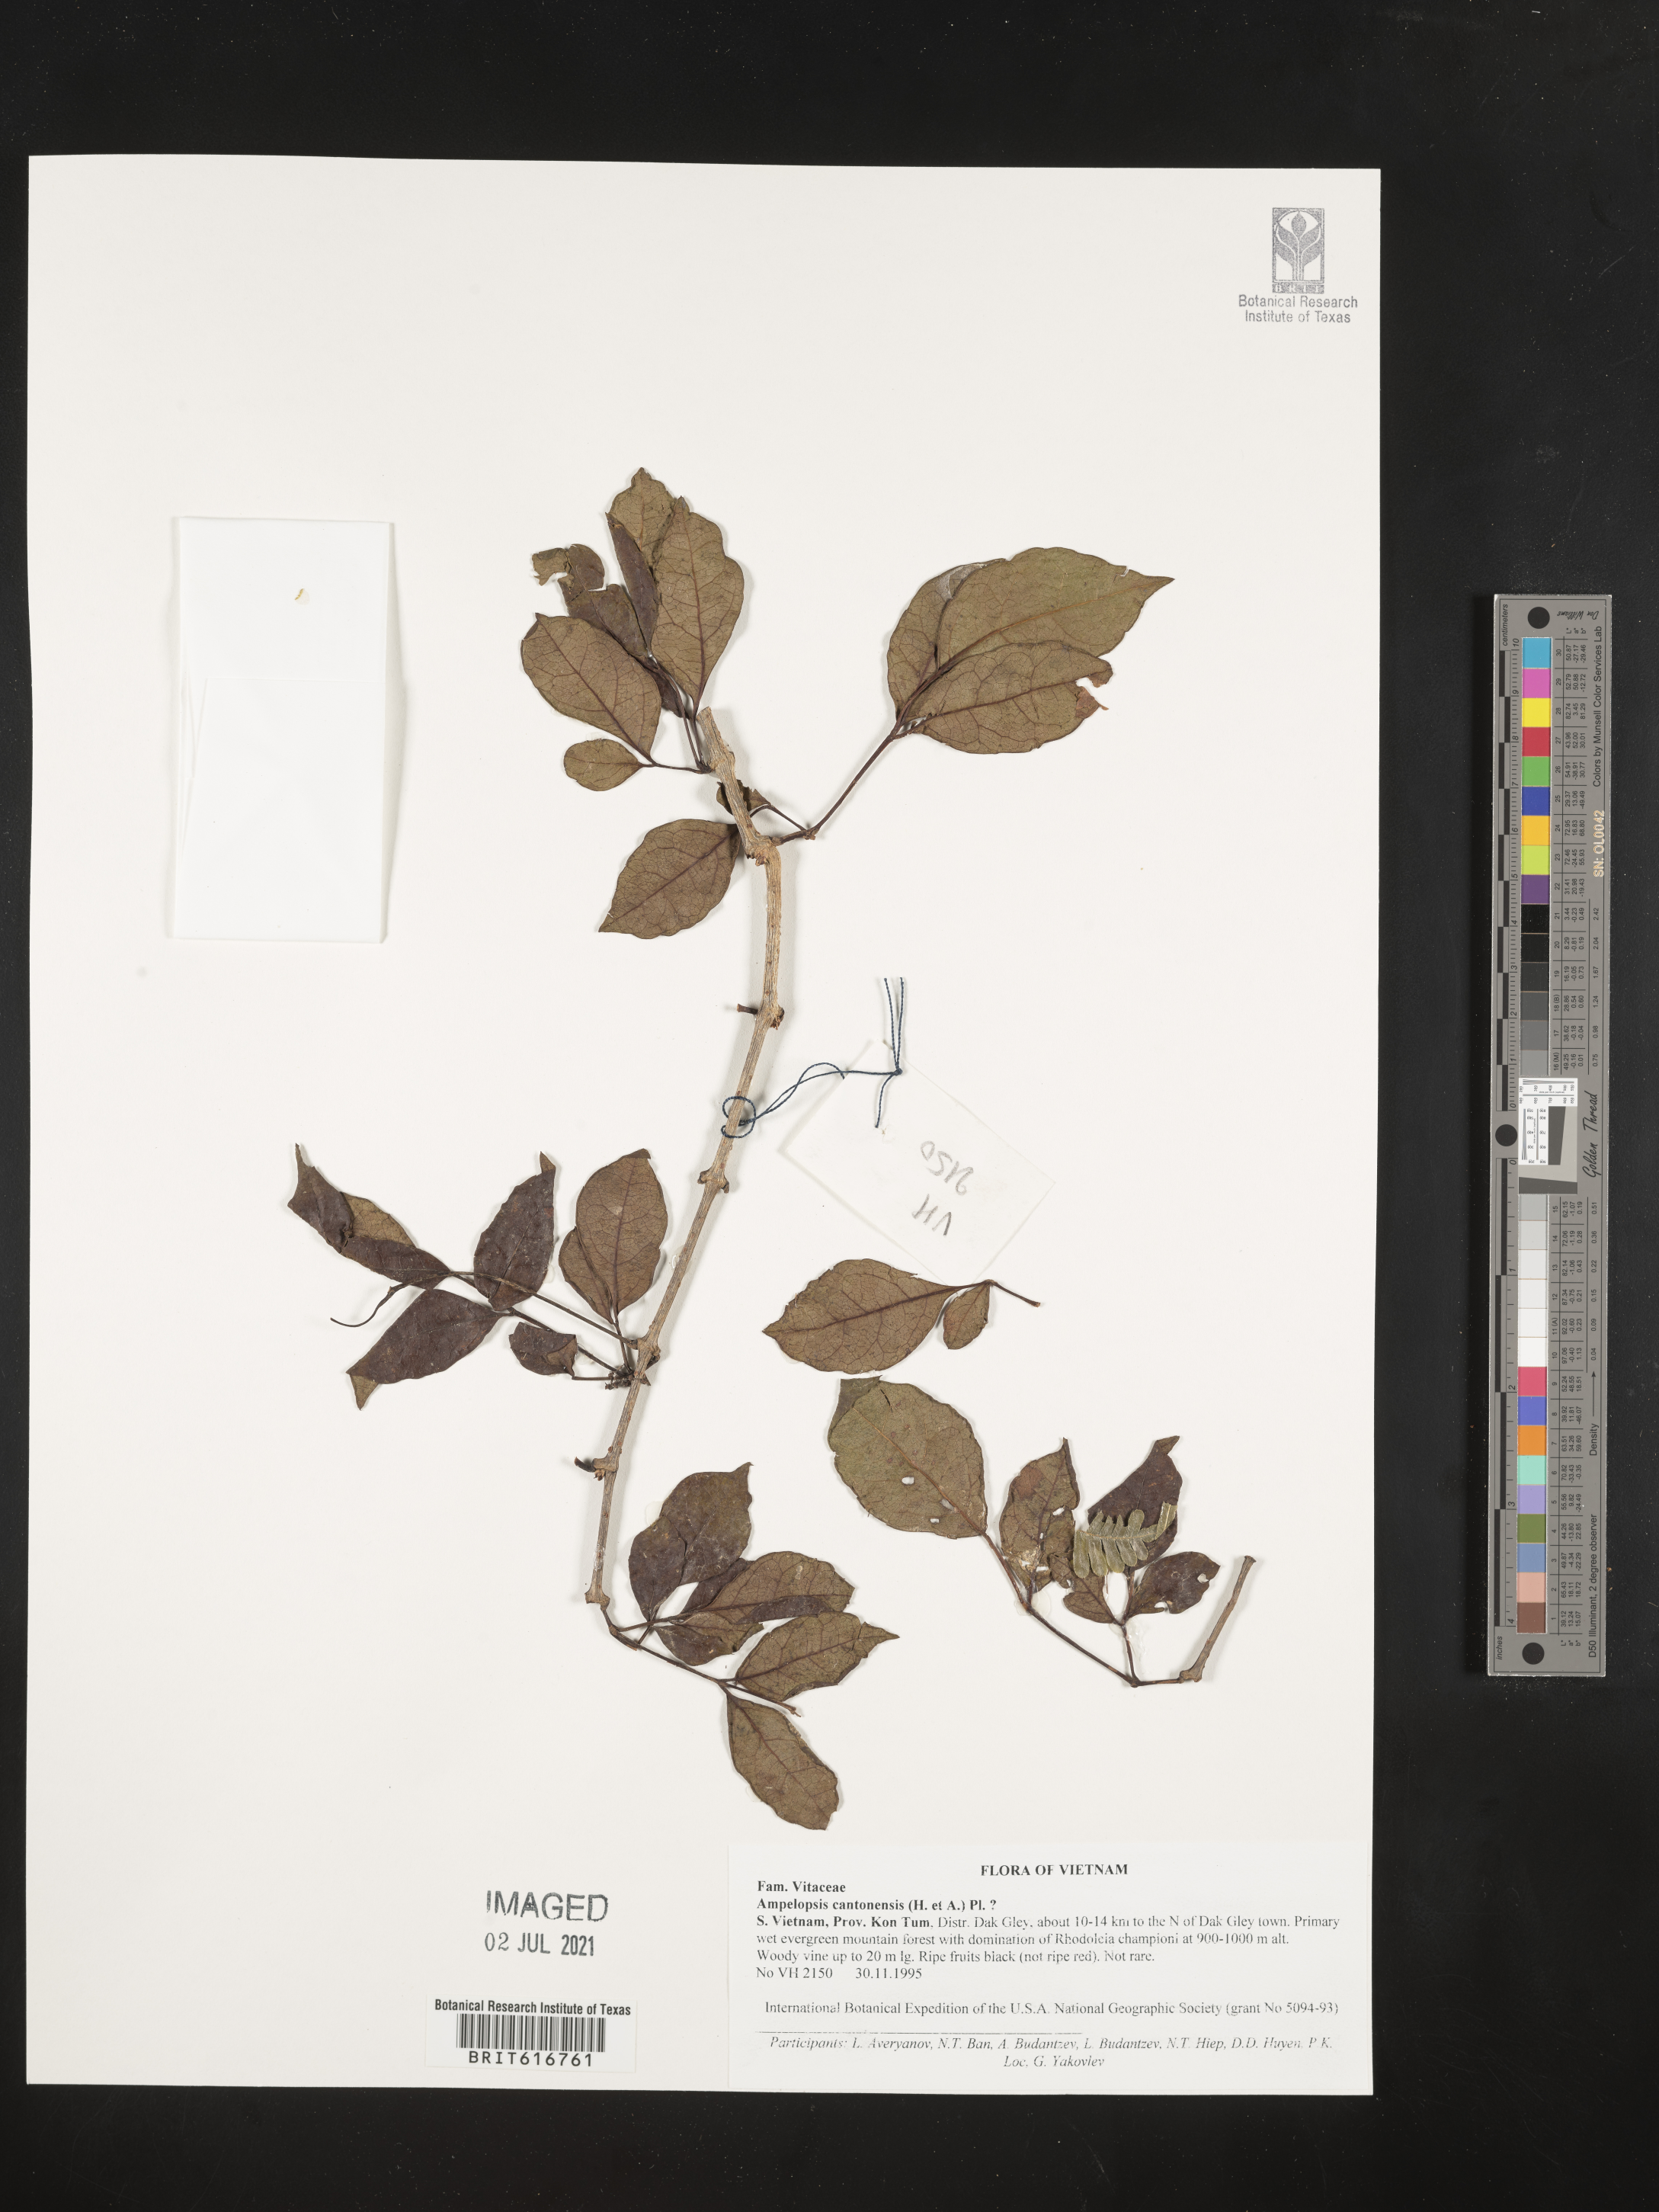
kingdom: Plantae
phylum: Tracheophyta
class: Magnoliopsida
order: Vitales
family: Vitaceae
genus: Nekemias
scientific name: Nekemias cantoniensis
